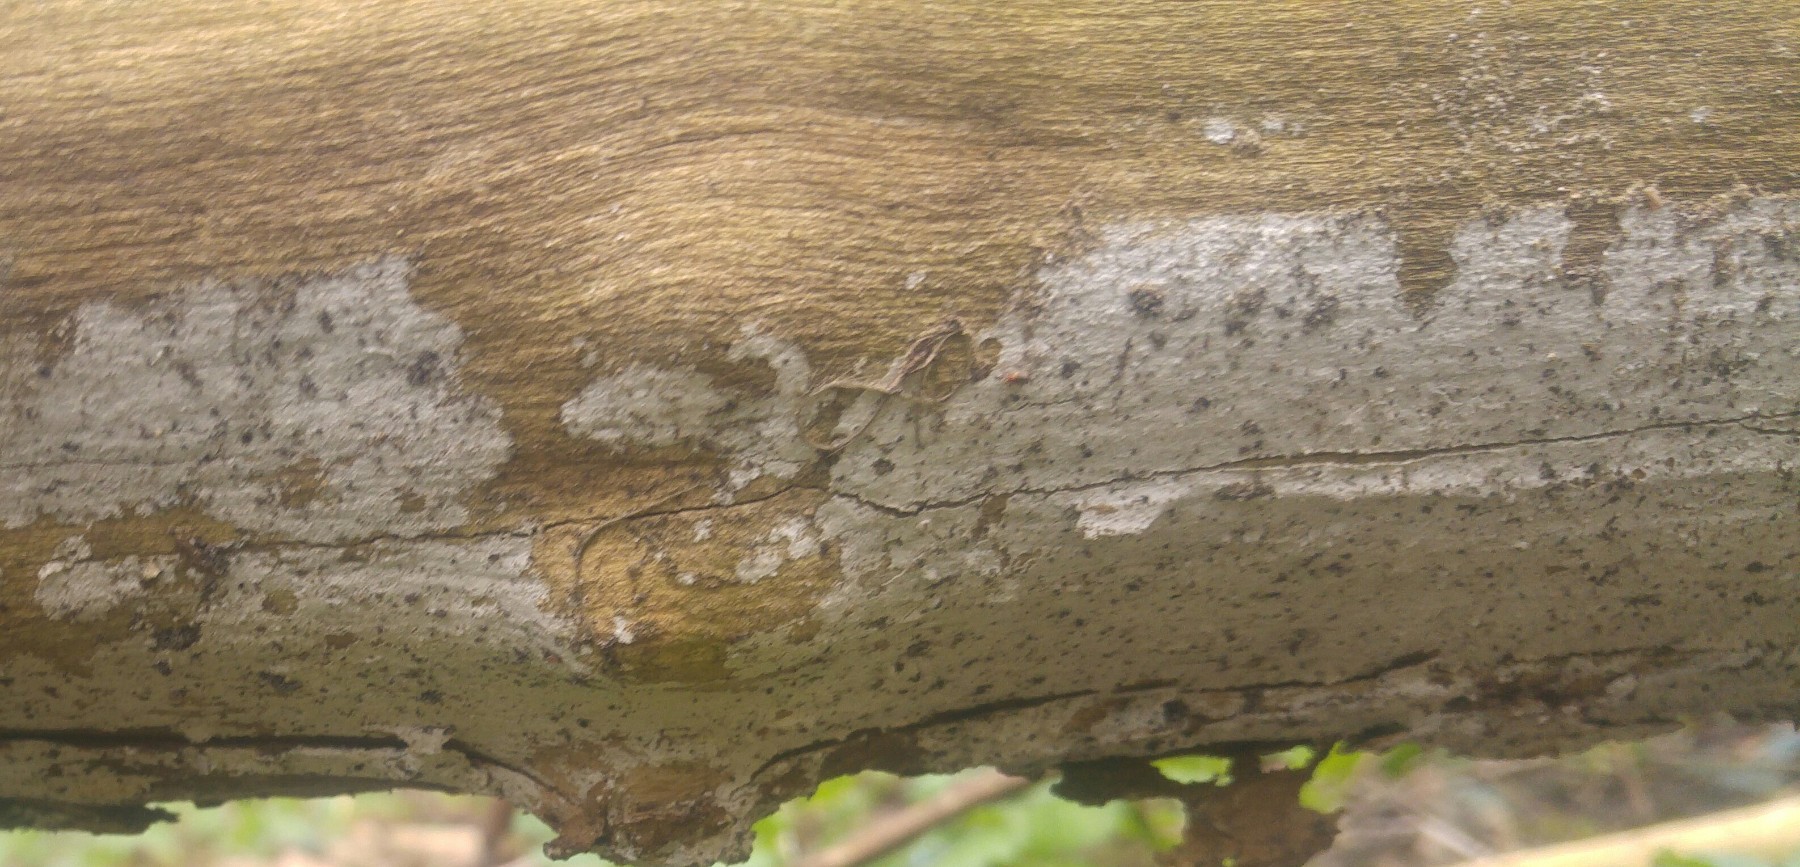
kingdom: Fungi
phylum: Basidiomycota
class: Agaricomycetes
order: Corticiales
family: Corticiaceae
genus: Lyomyces
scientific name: Lyomyces sambuci
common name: almindelig hyldehinde
